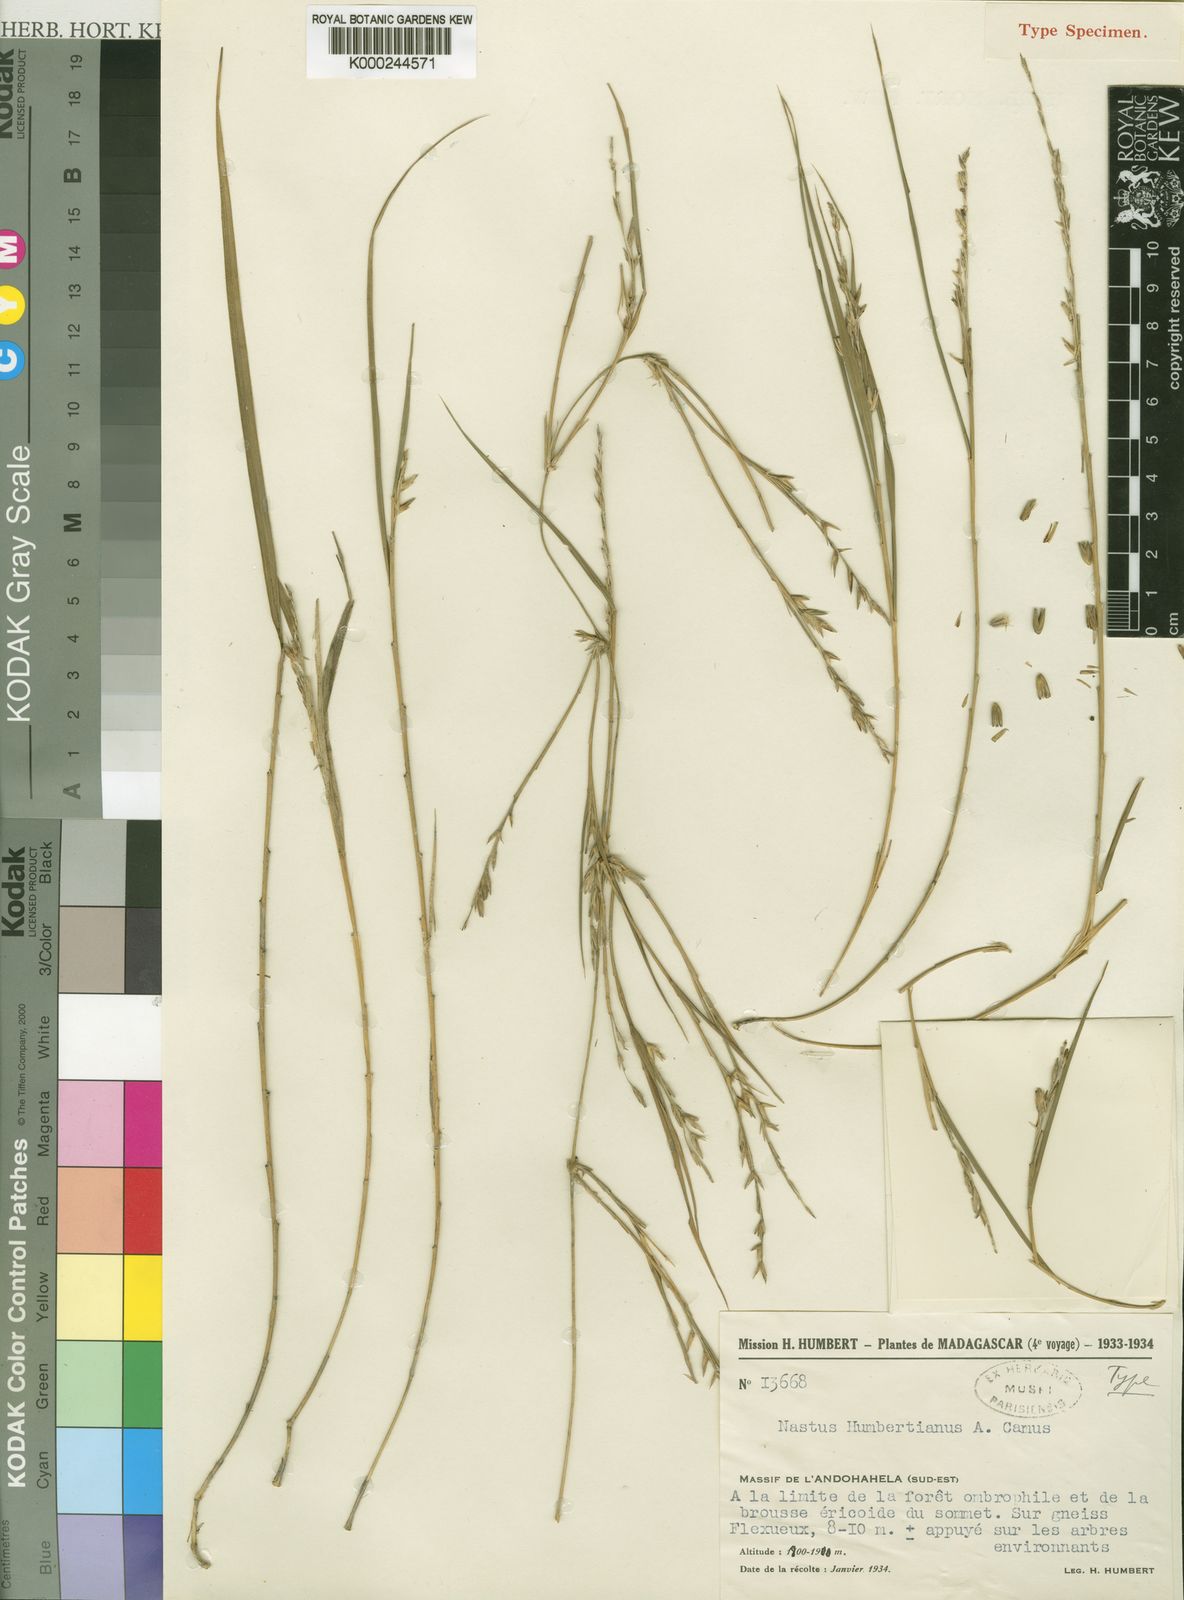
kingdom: Plantae
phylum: Tracheophyta
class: Liliopsida
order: Poales
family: Poaceae
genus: Nastus
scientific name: Nastus humbertianus
